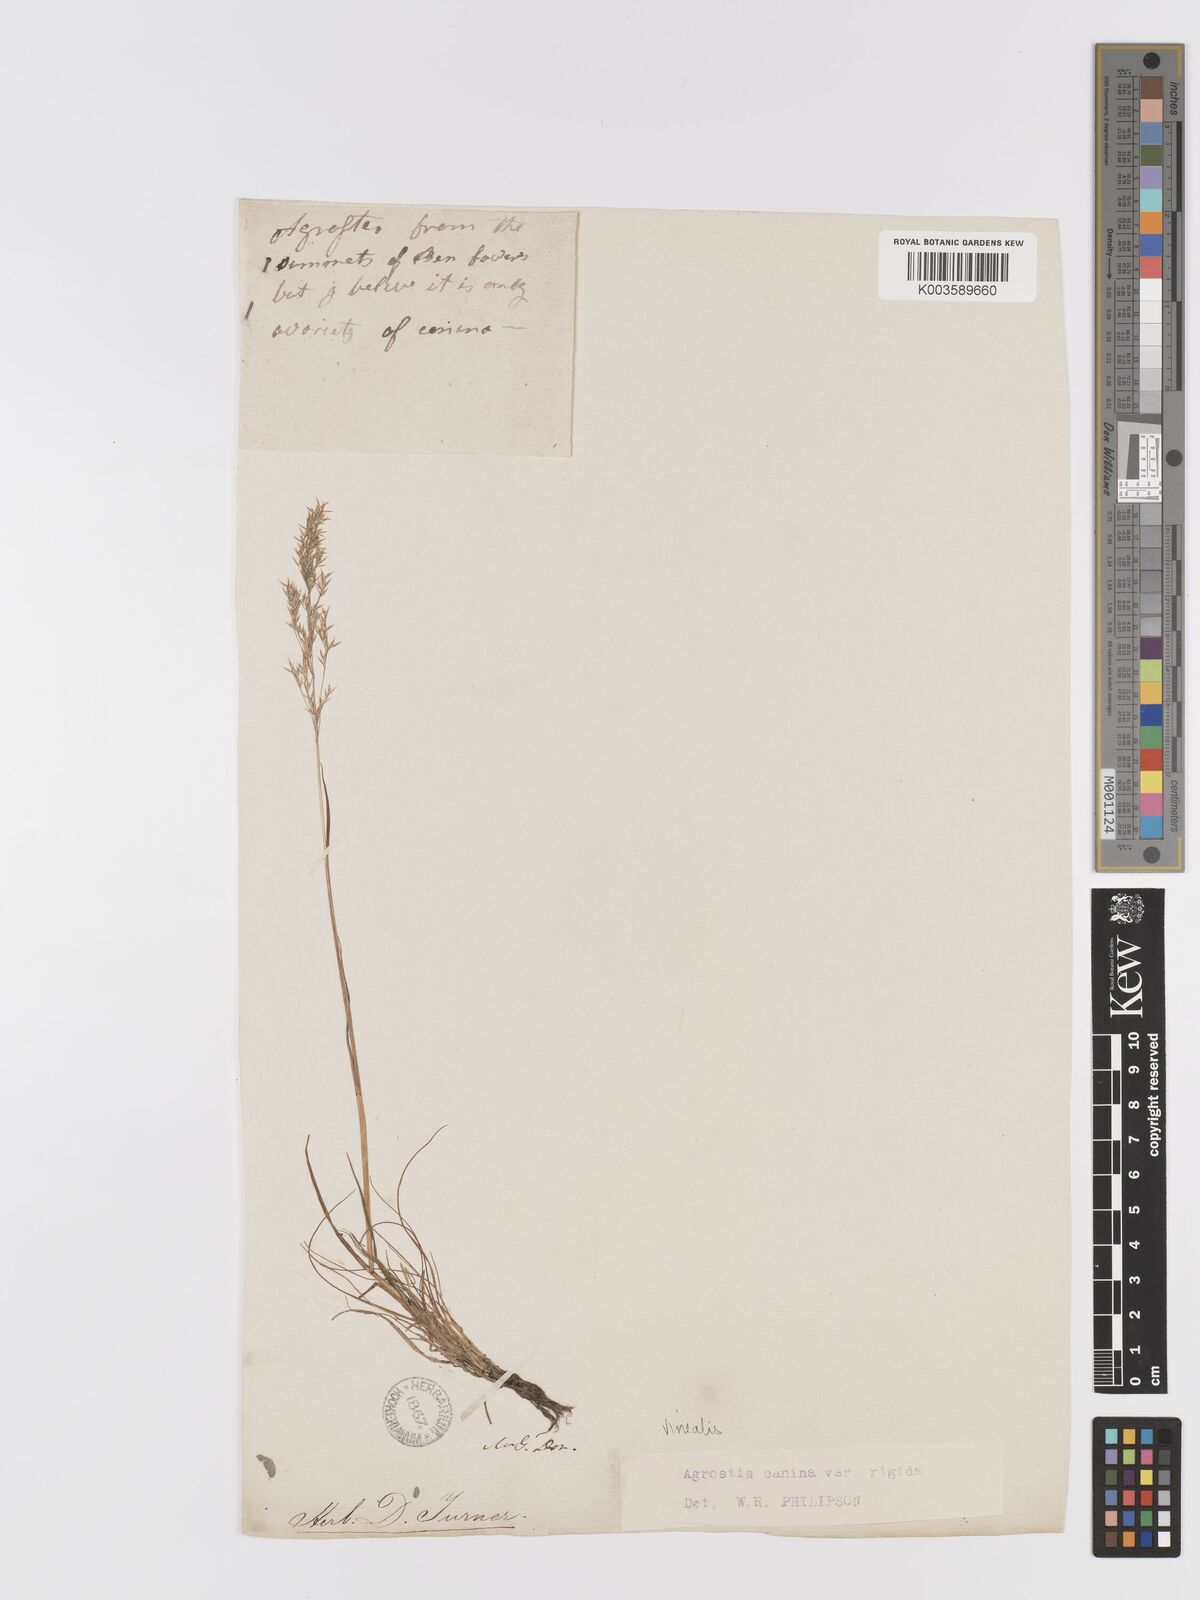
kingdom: Plantae
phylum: Tracheophyta
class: Liliopsida
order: Poales
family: Poaceae
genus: Agrostis
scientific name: Agrostis
